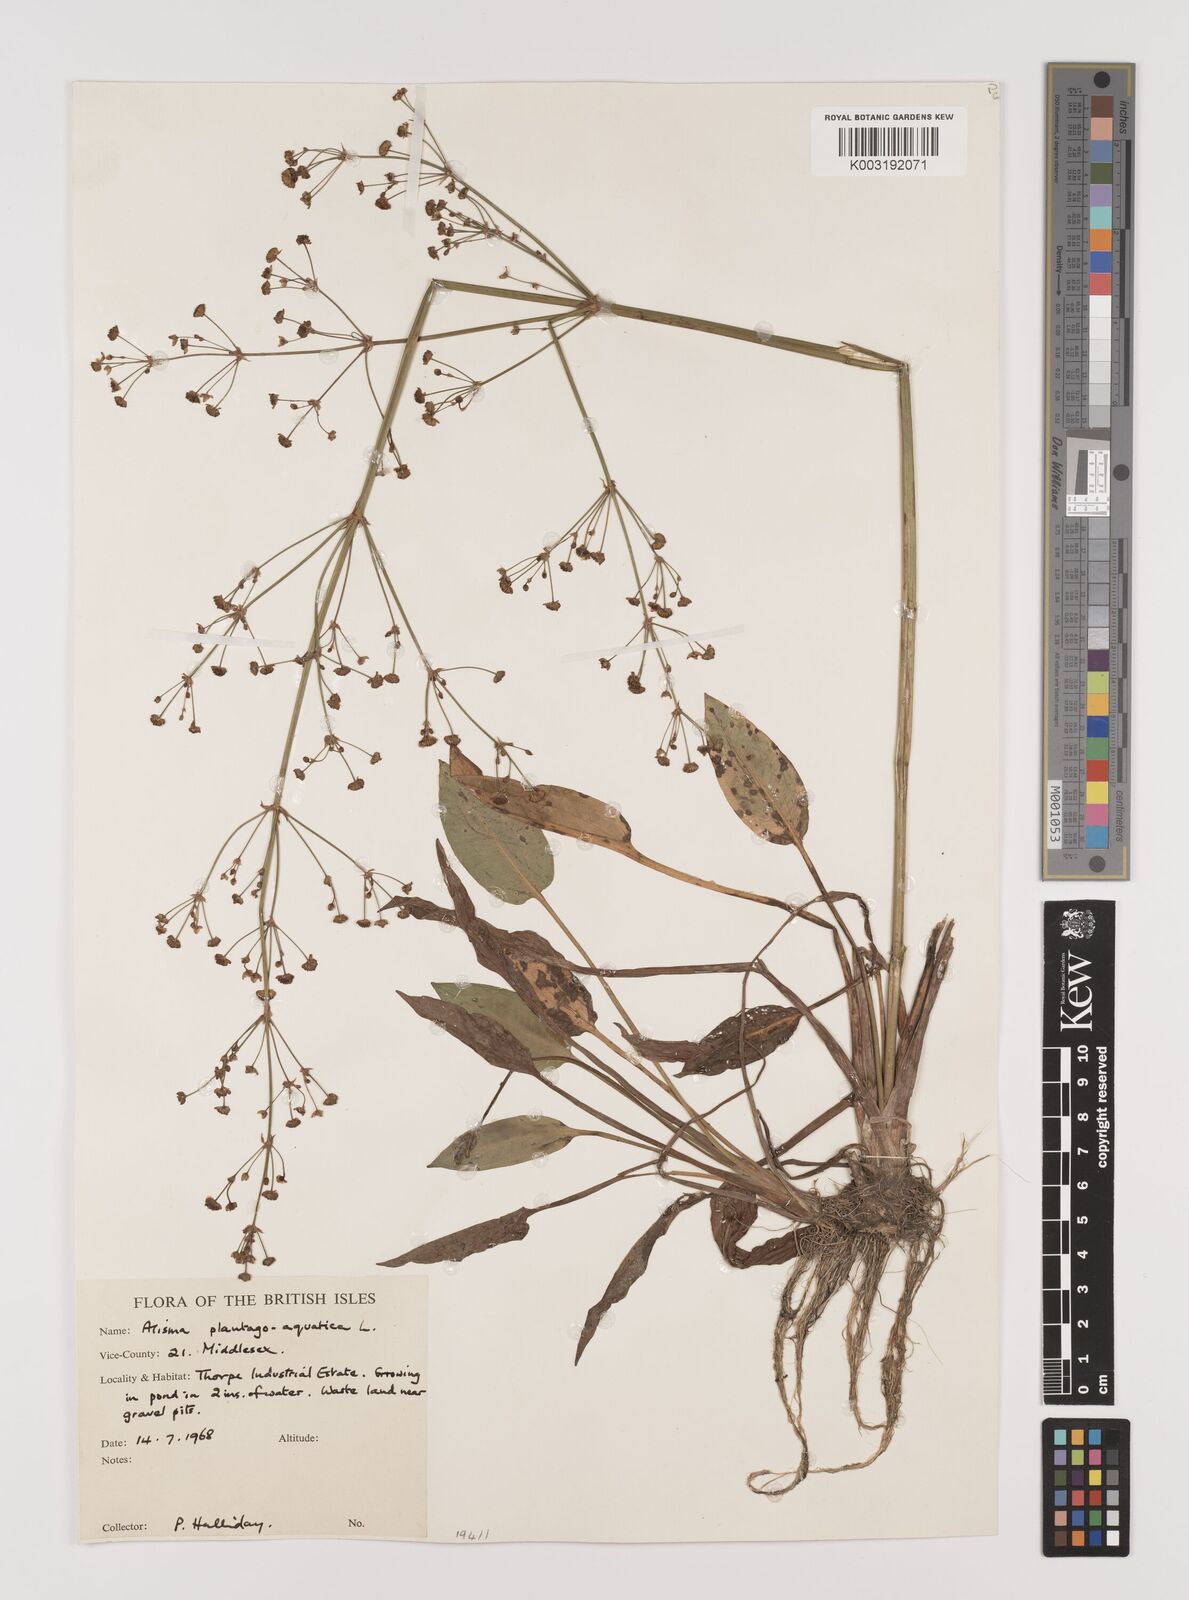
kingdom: Plantae
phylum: Tracheophyta
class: Liliopsida
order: Alismatales
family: Alismataceae
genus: Alisma
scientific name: Alisma plantago-aquatica
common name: Water-plantain
